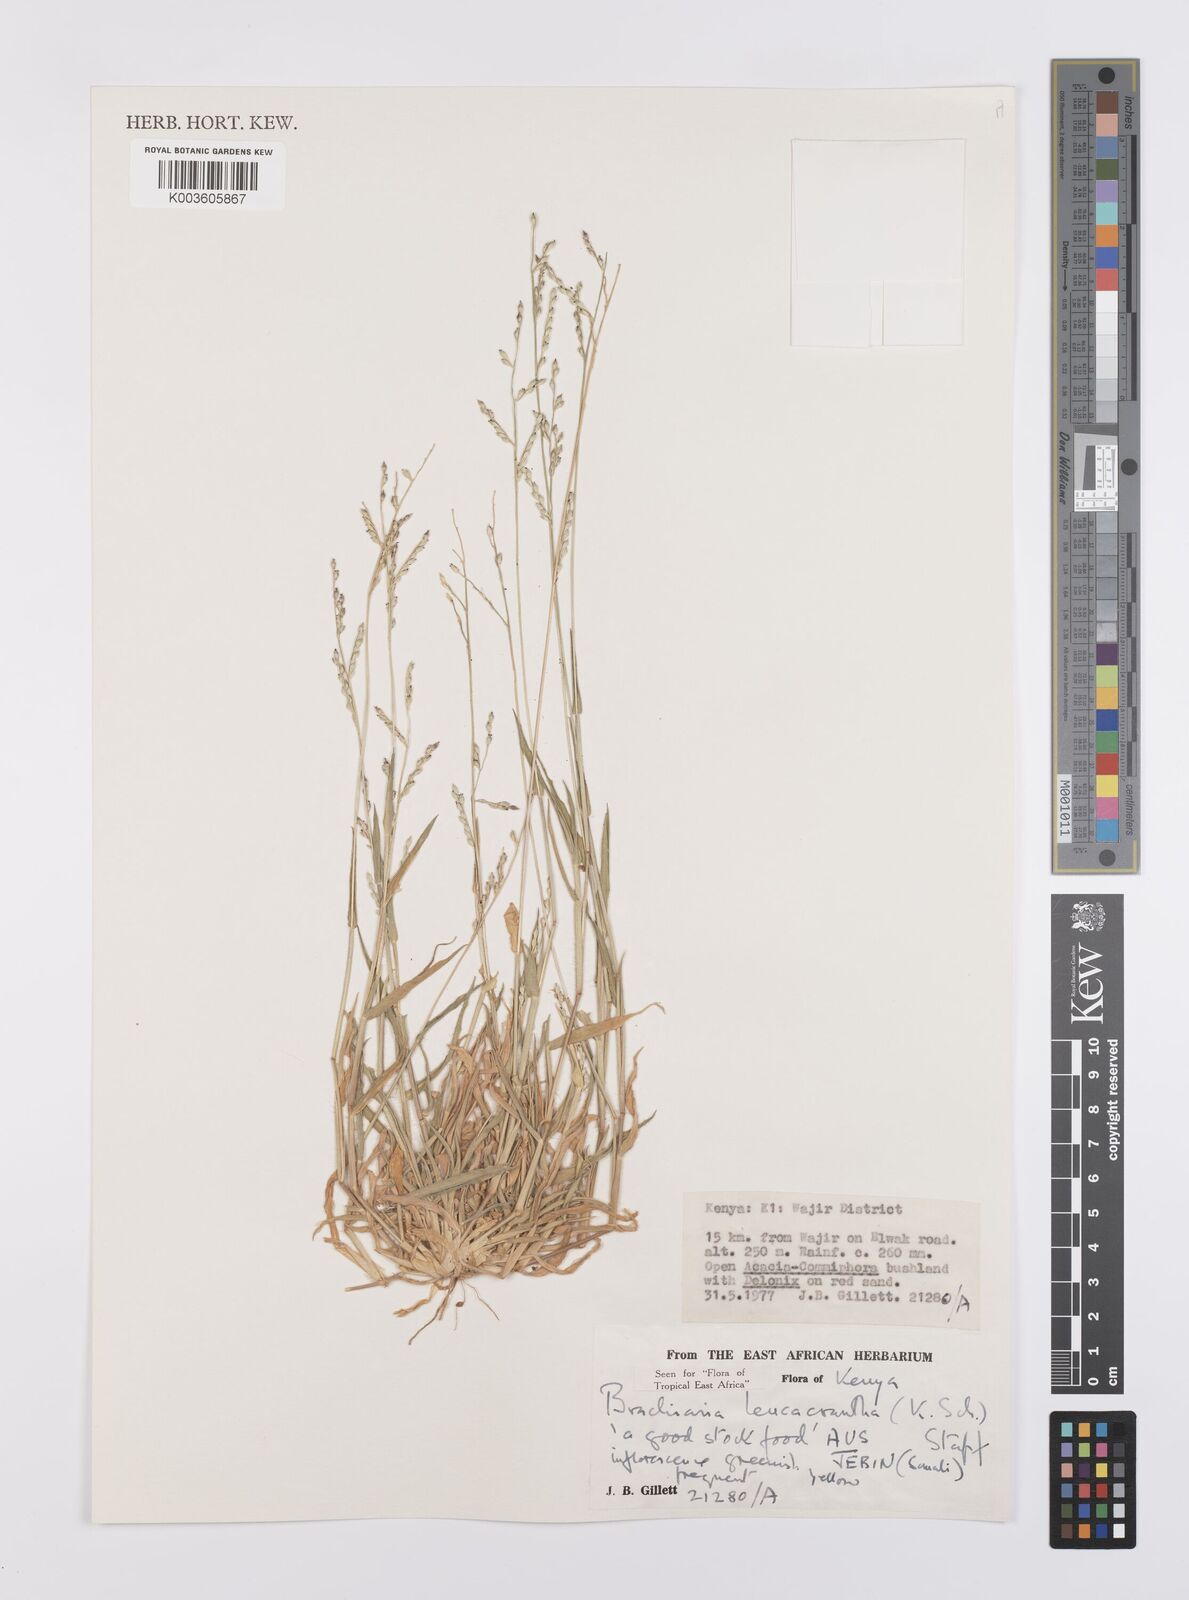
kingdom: Plantae
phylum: Tracheophyta
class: Liliopsida
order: Poales
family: Poaceae
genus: Urochloa
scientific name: Urochloa xantholeuca
